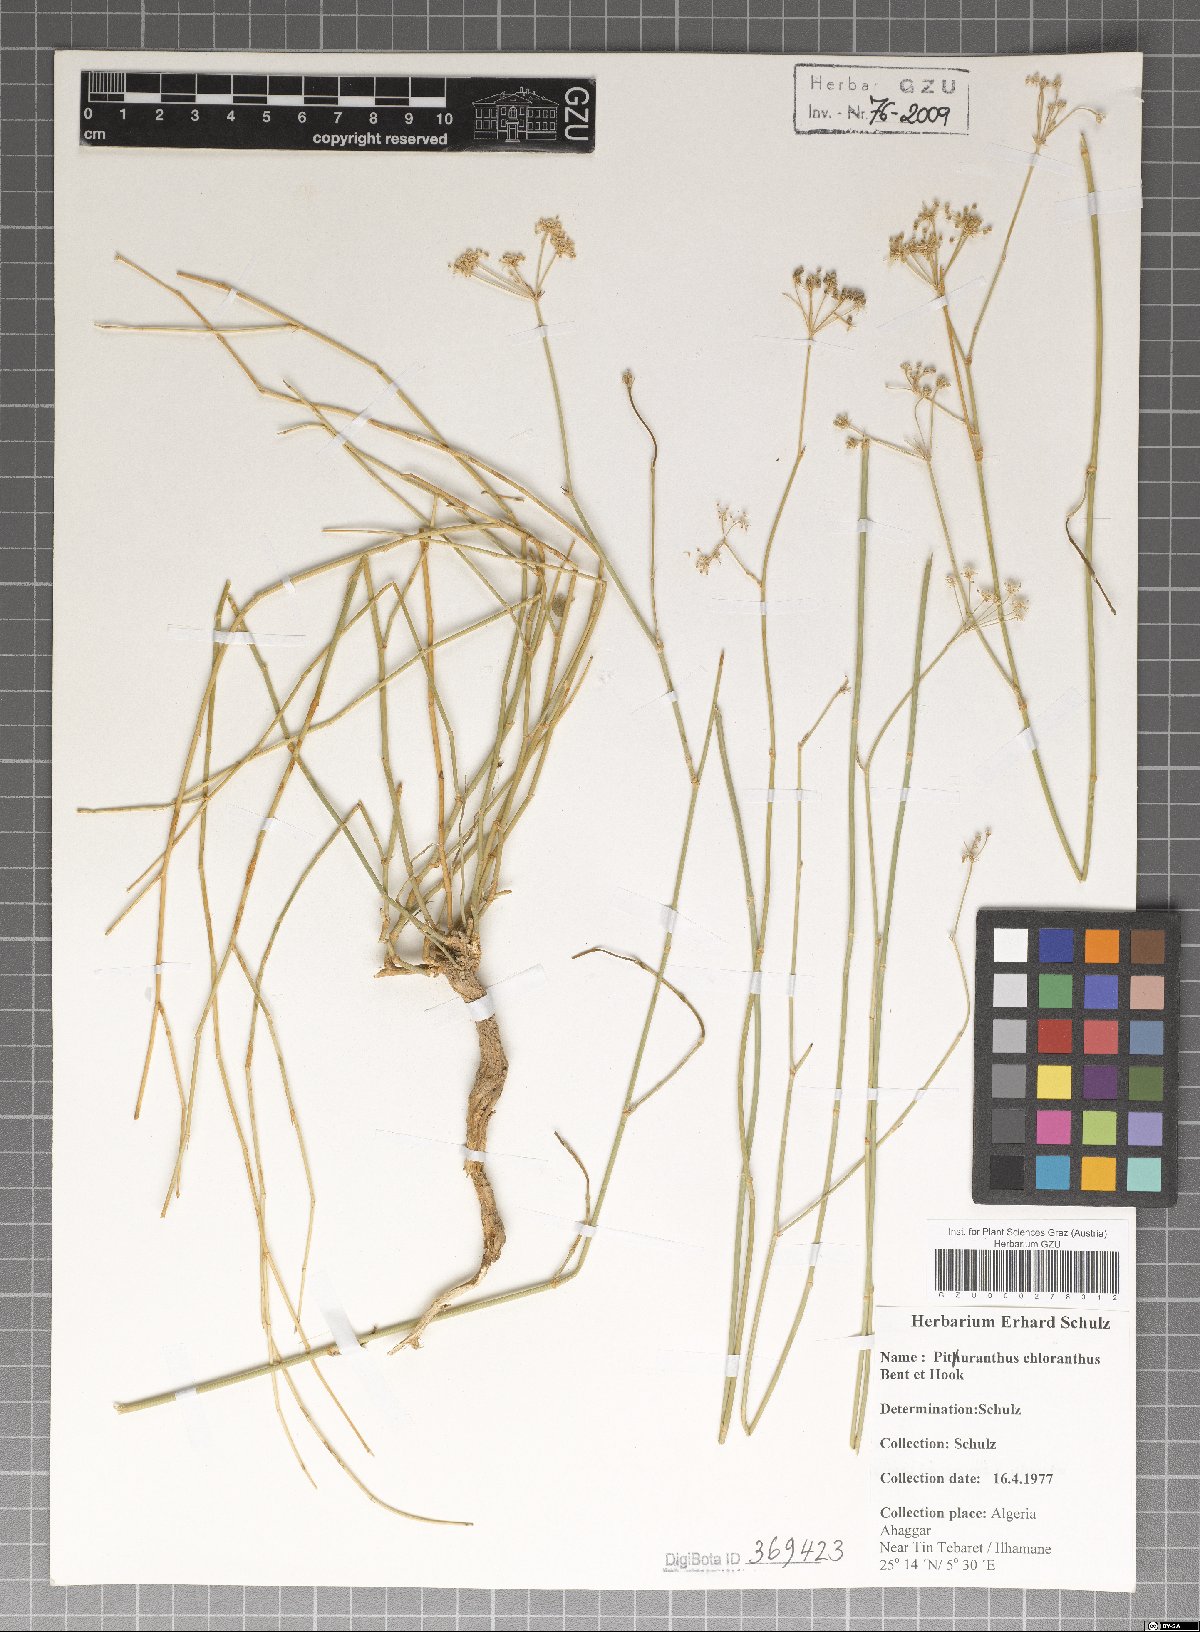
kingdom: Plantae
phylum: Tracheophyta
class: Magnoliopsida
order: Apiales
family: Apiaceae
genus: Deverra
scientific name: Deverra denudata
